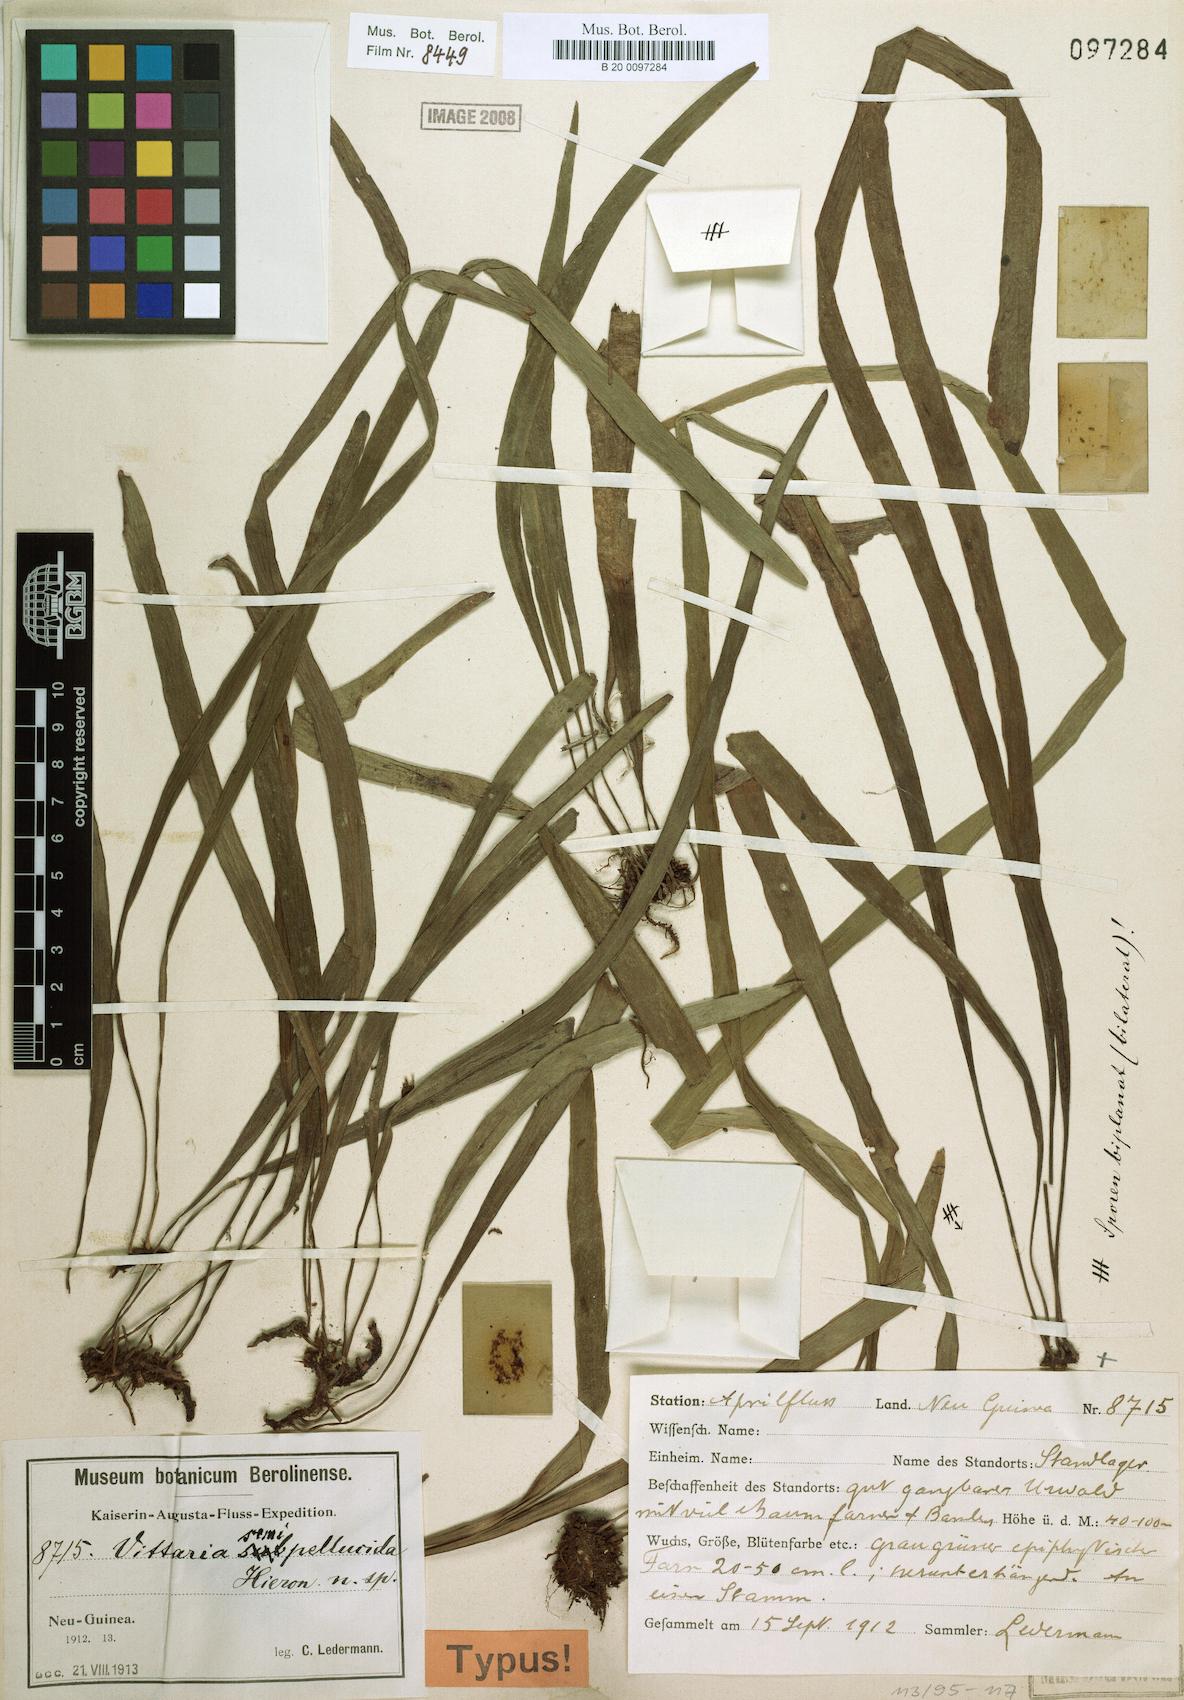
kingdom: Plantae
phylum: Tracheophyta
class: Polypodiopsida
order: Polypodiales
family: Pteridaceae
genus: Haplopteris
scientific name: Haplopteris elongata
